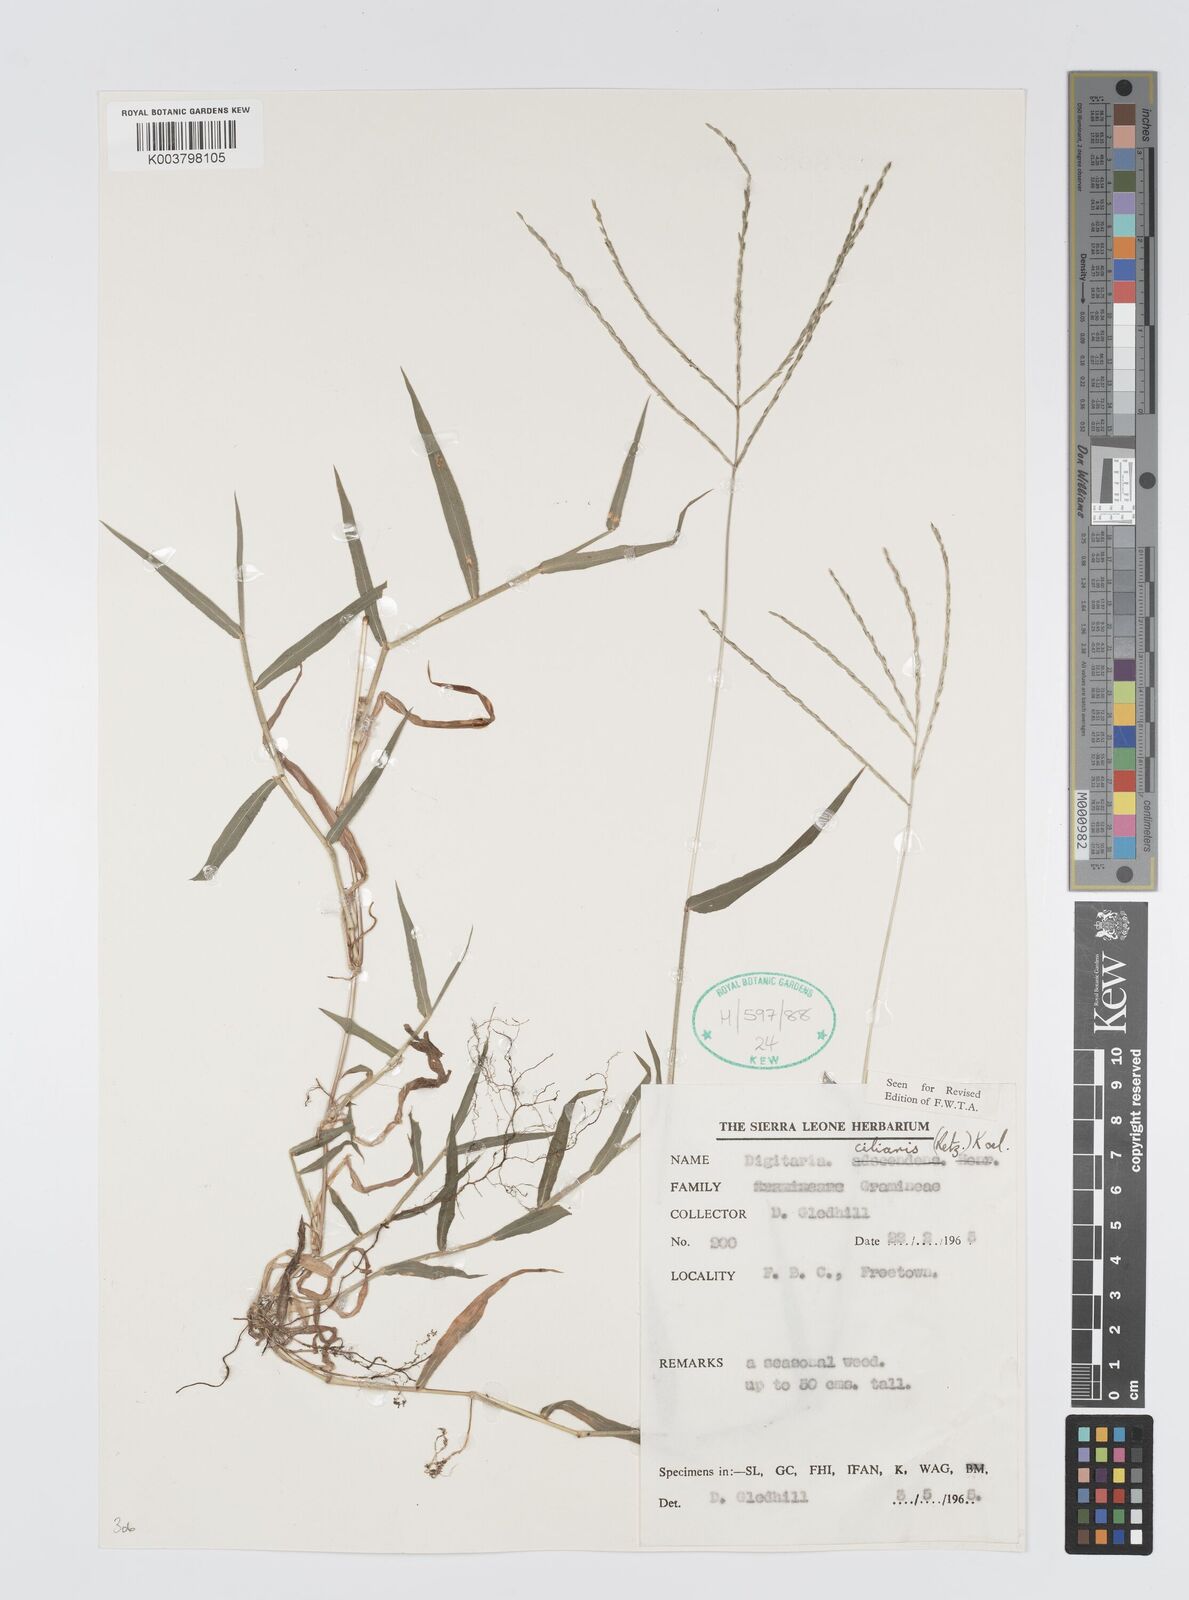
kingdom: Plantae
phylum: Tracheophyta
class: Liliopsida
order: Poales
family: Poaceae
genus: Digitaria
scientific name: Digitaria
